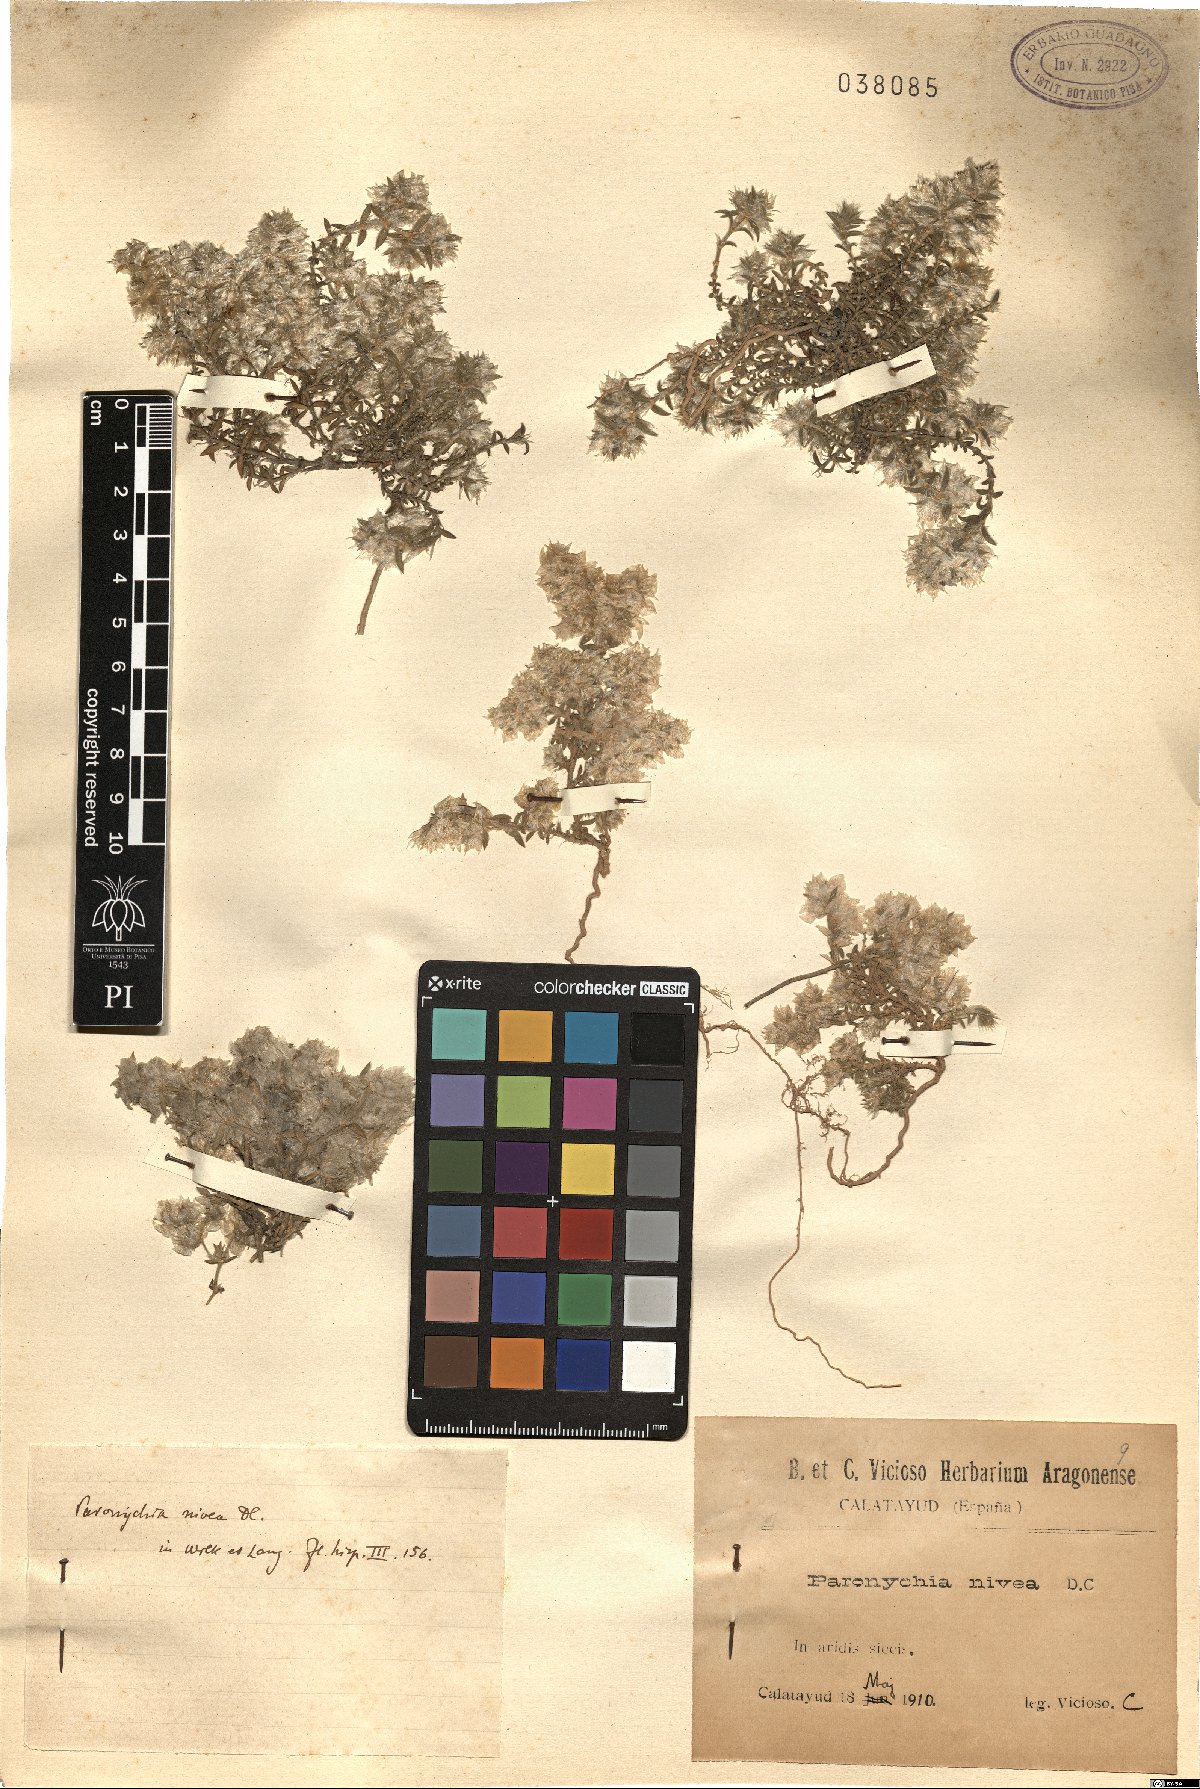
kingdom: Plantae
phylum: Tracheophyta
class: Magnoliopsida
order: Caryophyllales
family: Caryophyllaceae
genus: Paronychia
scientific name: Paronychia capitata
